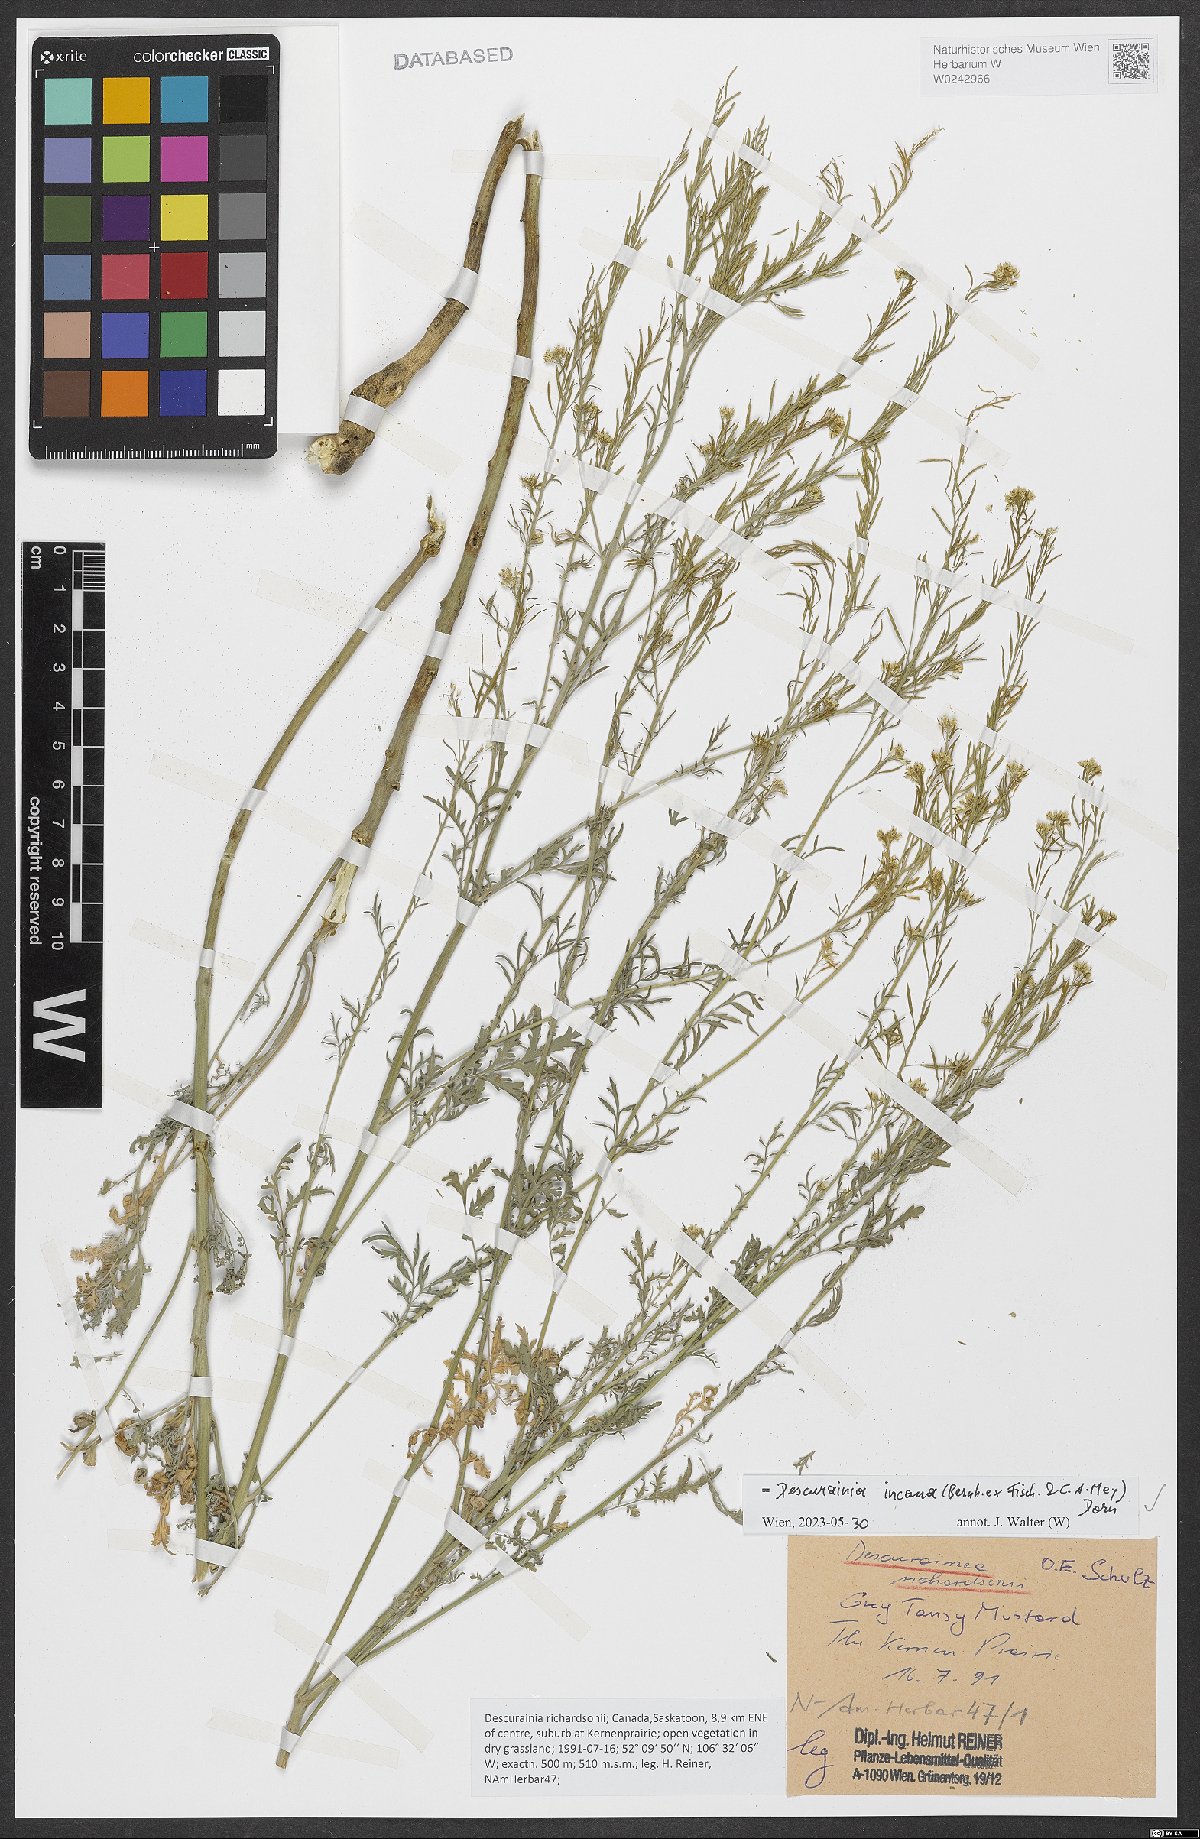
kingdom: Plantae
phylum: Tracheophyta
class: Magnoliopsida
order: Brassicales
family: Brassicaceae
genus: Descurainia
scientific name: Descurainia richardsonii
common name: Western tansy-mustard
